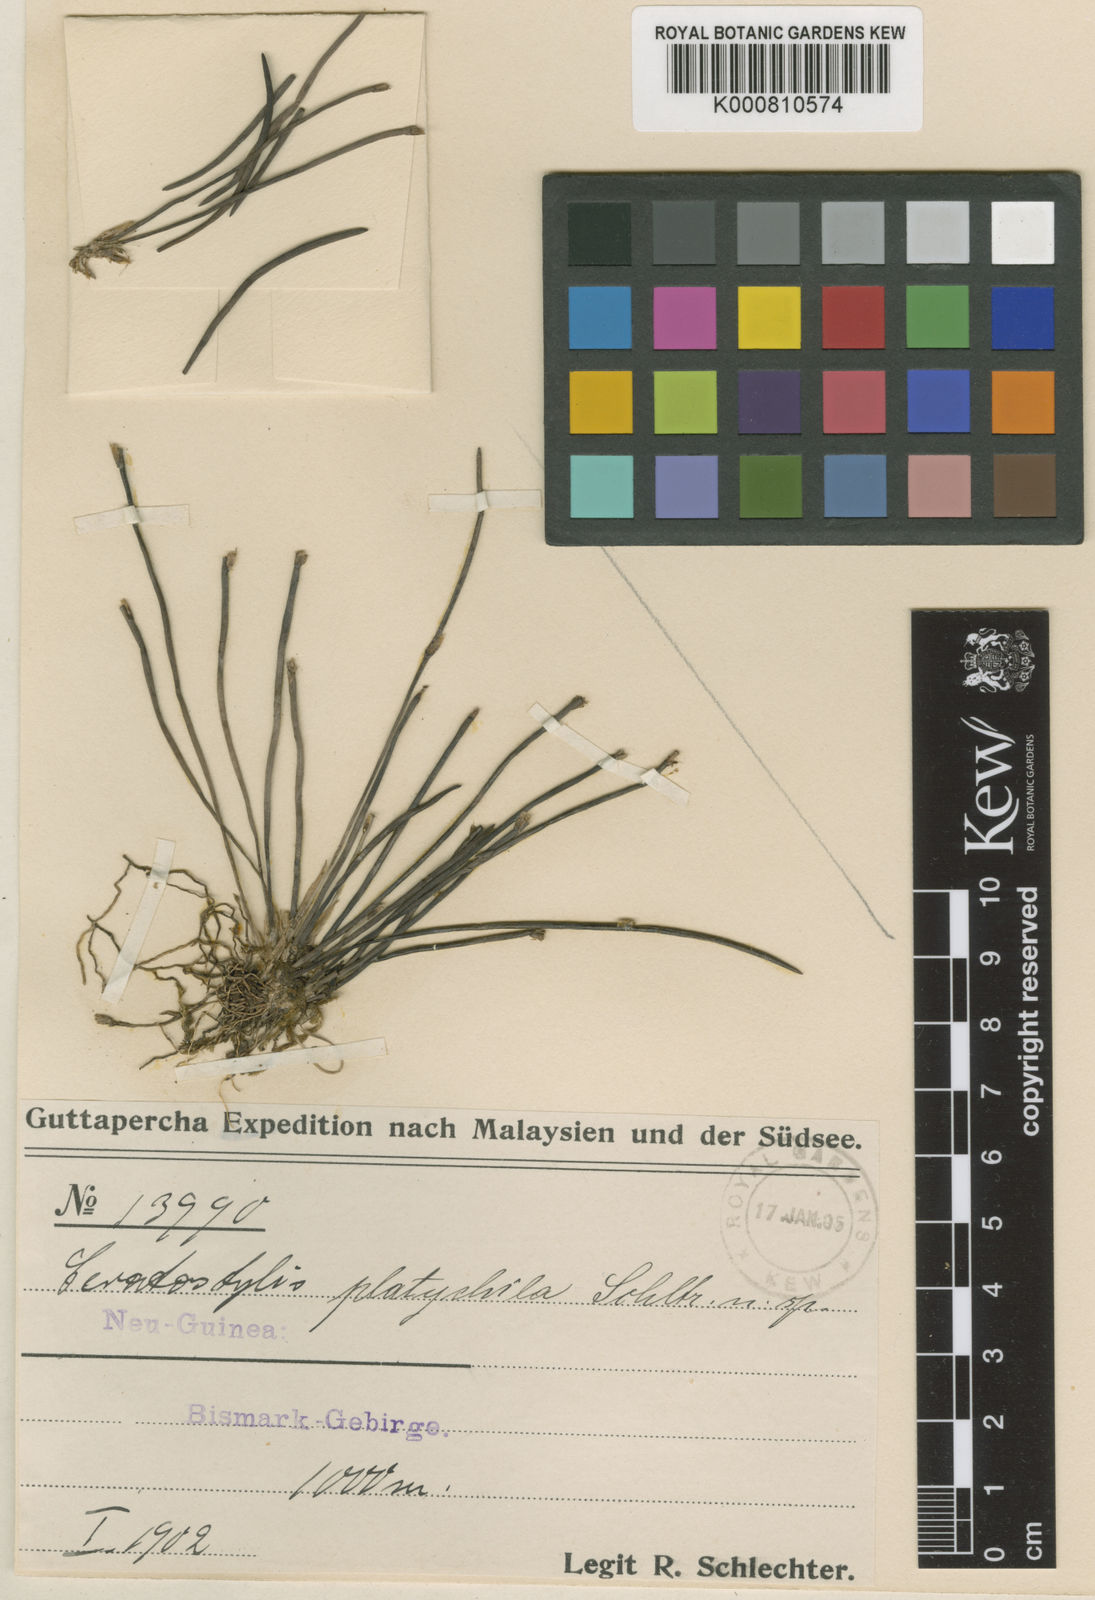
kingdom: Plantae
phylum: Tracheophyta
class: Liliopsida
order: Asparagales
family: Orchidaceae
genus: Ceratostylis
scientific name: Ceratostylis platychila
